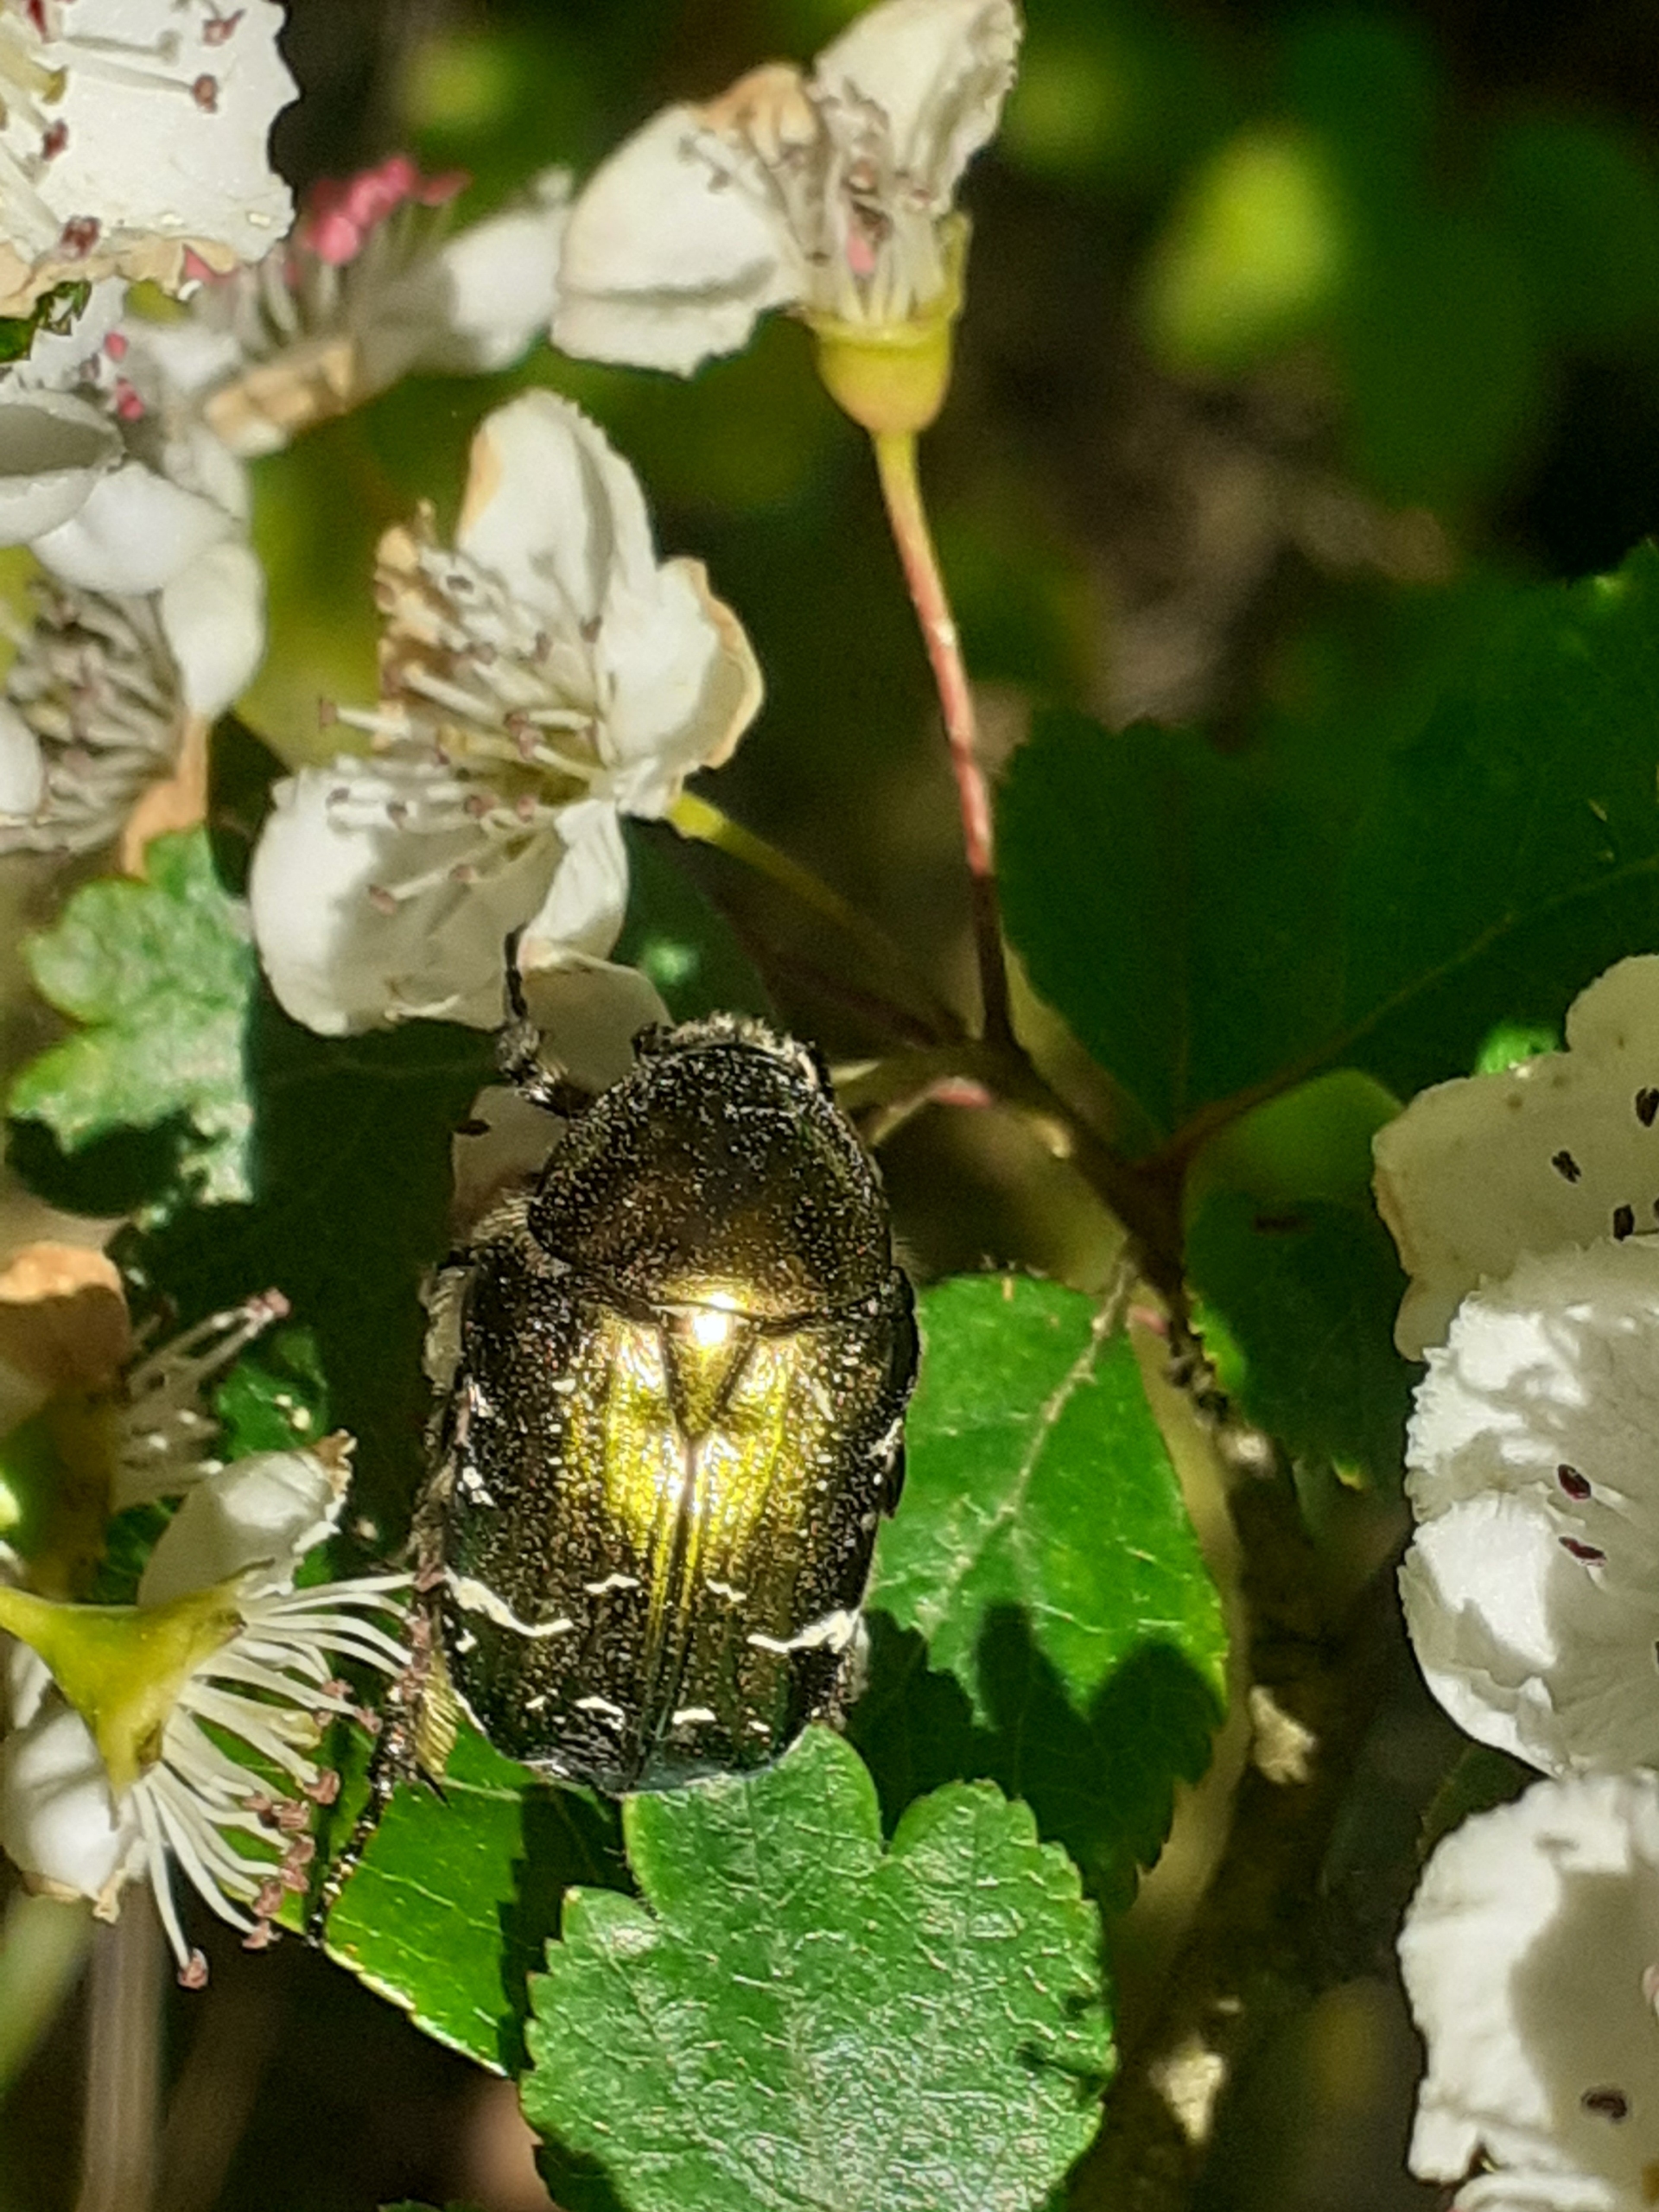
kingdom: Animalia
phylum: Arthropoda
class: Insecta
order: Coleoptera
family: Scarabaeidae
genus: Protaetia
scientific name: Protaetia cuprea
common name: Kobberguldbasse
